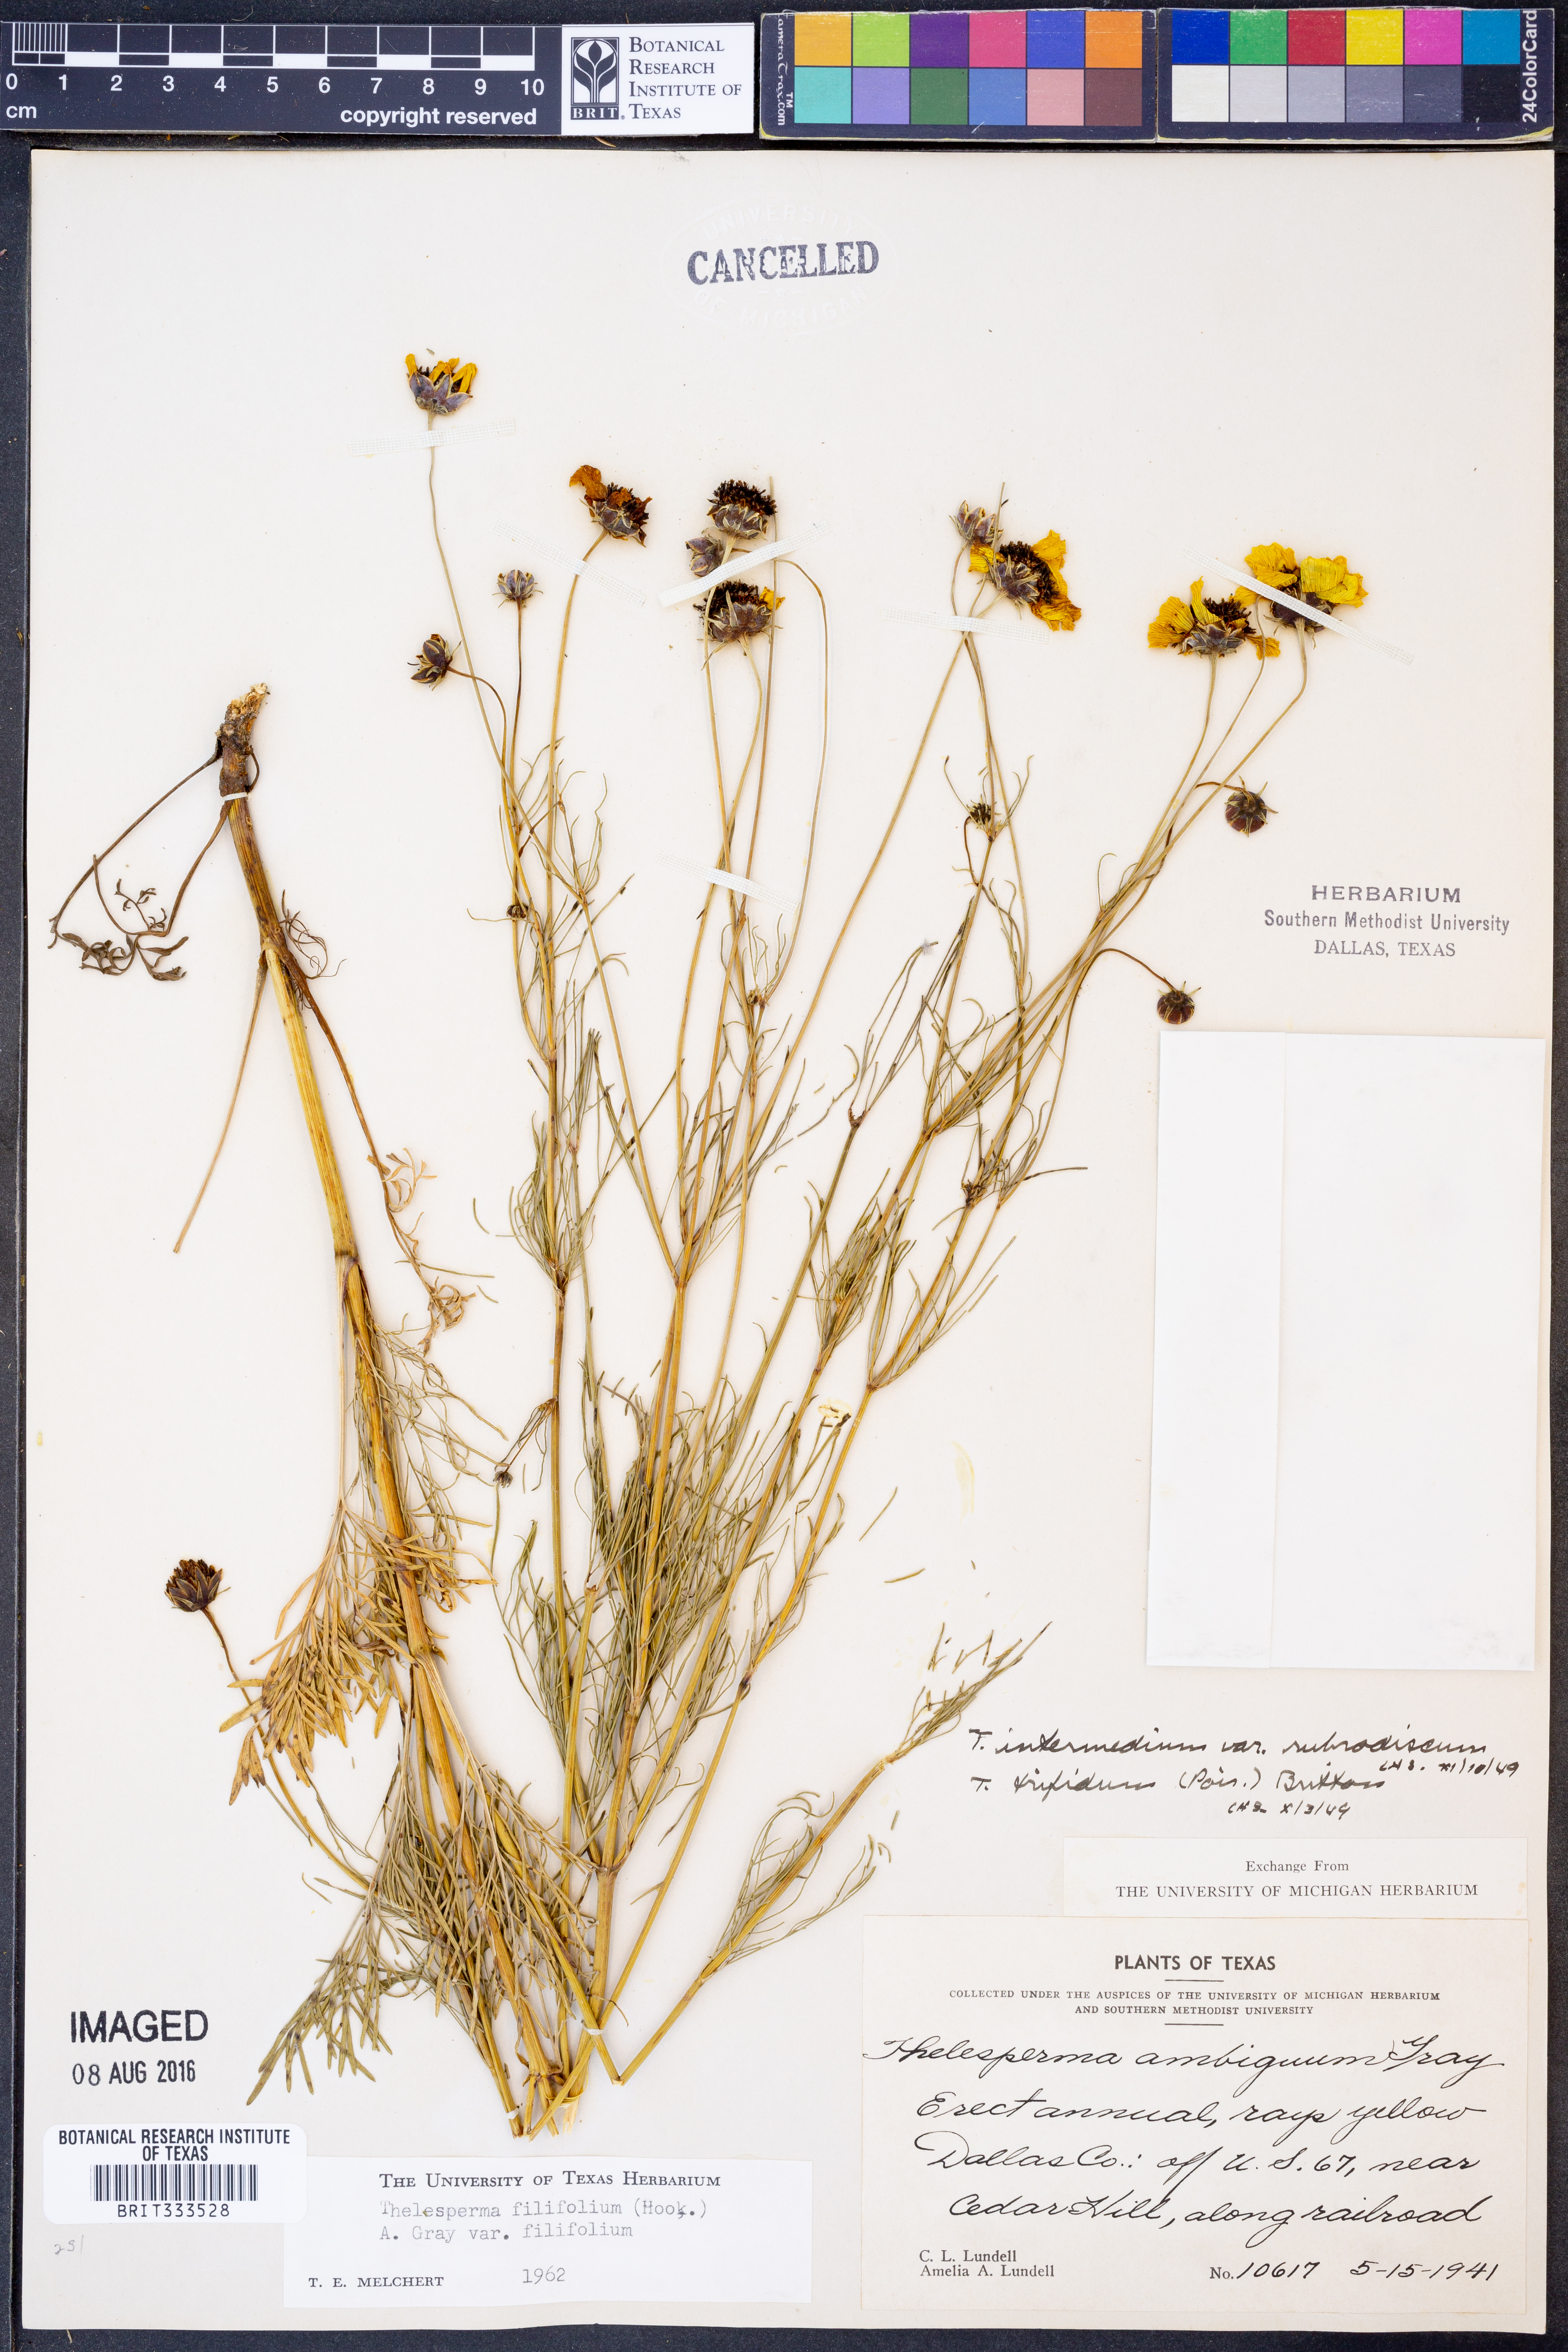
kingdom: Plantae
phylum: Tracheophyta
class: Magnoliopsida
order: Asterales
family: Asteraceae
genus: Thelesperma
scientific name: Thelesperma filifolium
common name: Stiff greenthread
